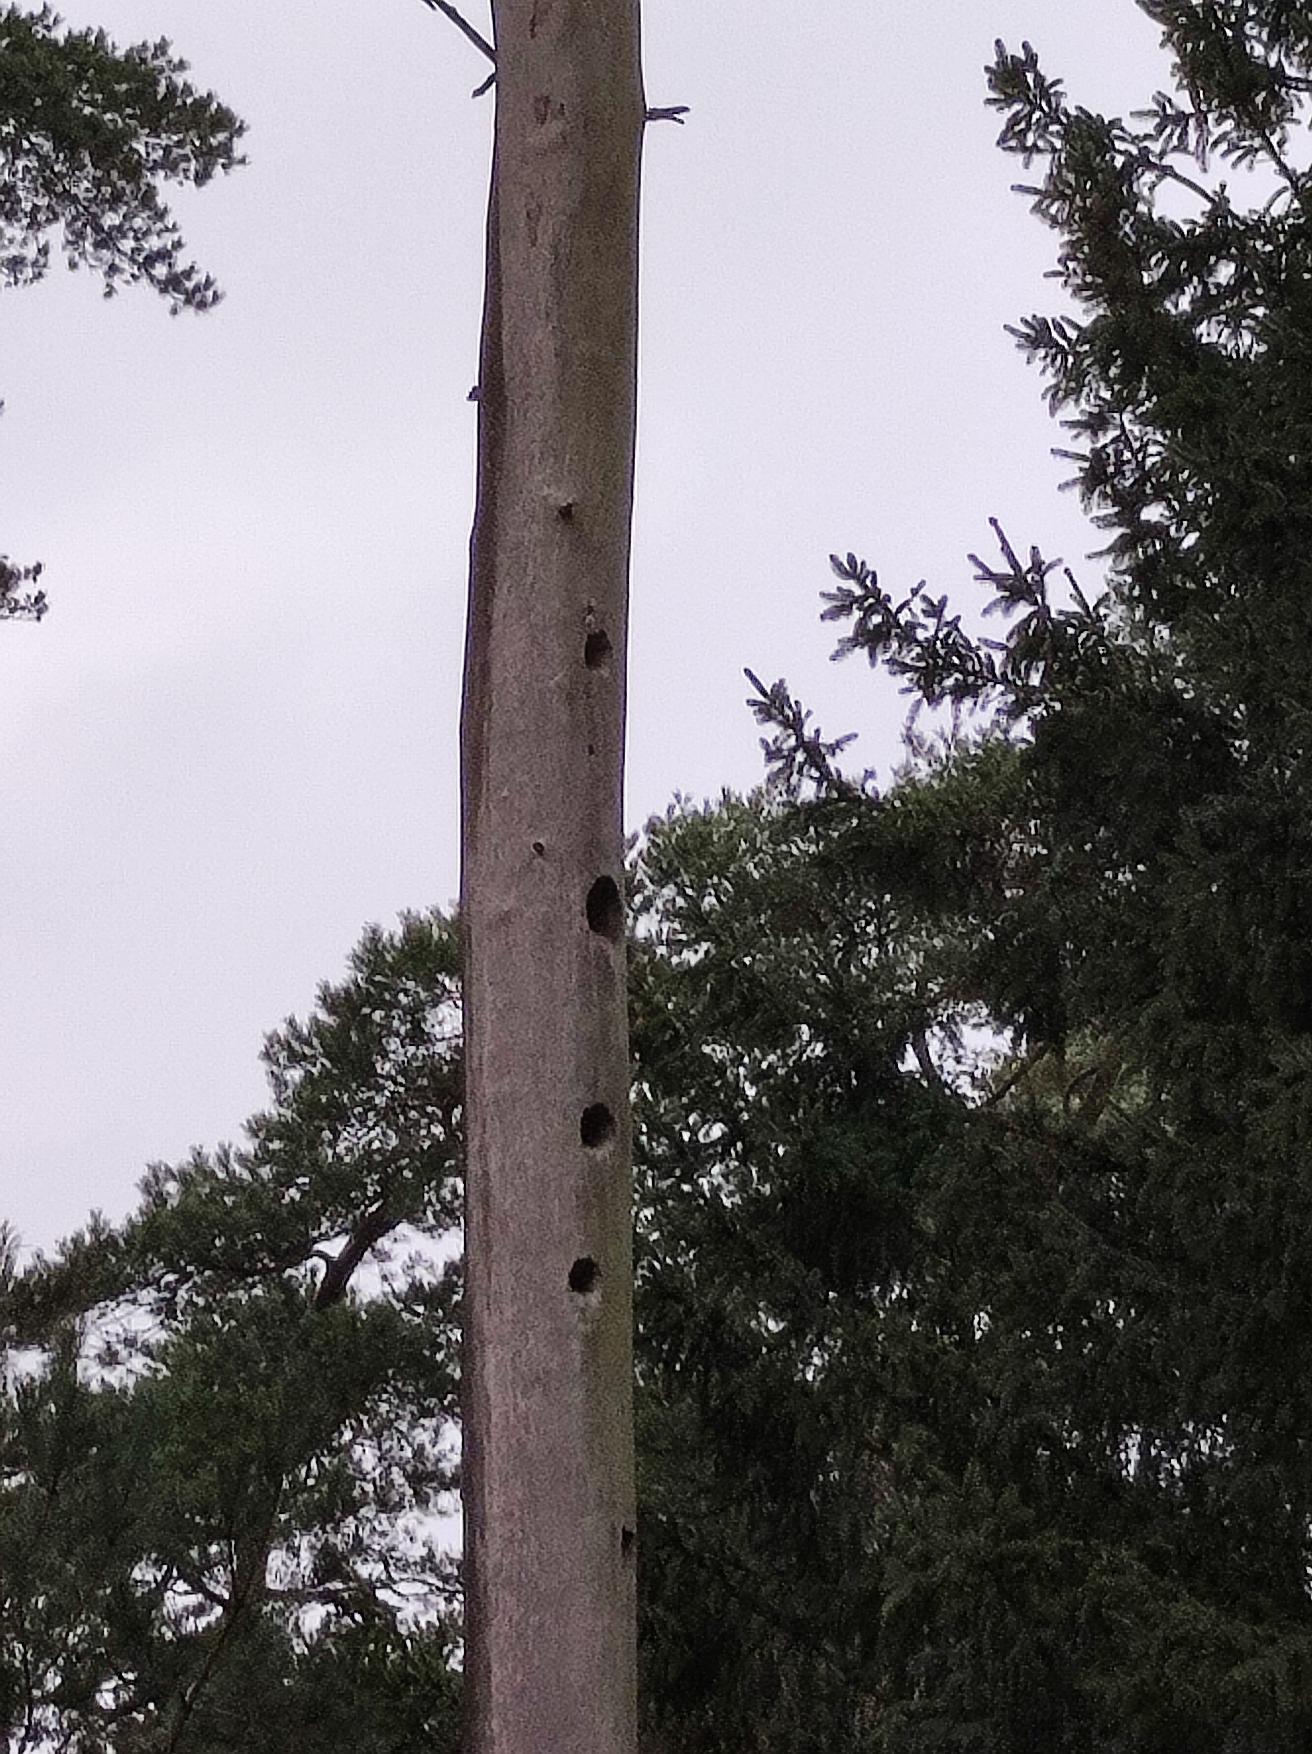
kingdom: Animalia
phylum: Chordata
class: Aves
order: Piciformes
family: Picidae
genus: Dryocopus
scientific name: Dryocopus martius
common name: Sortspætte
